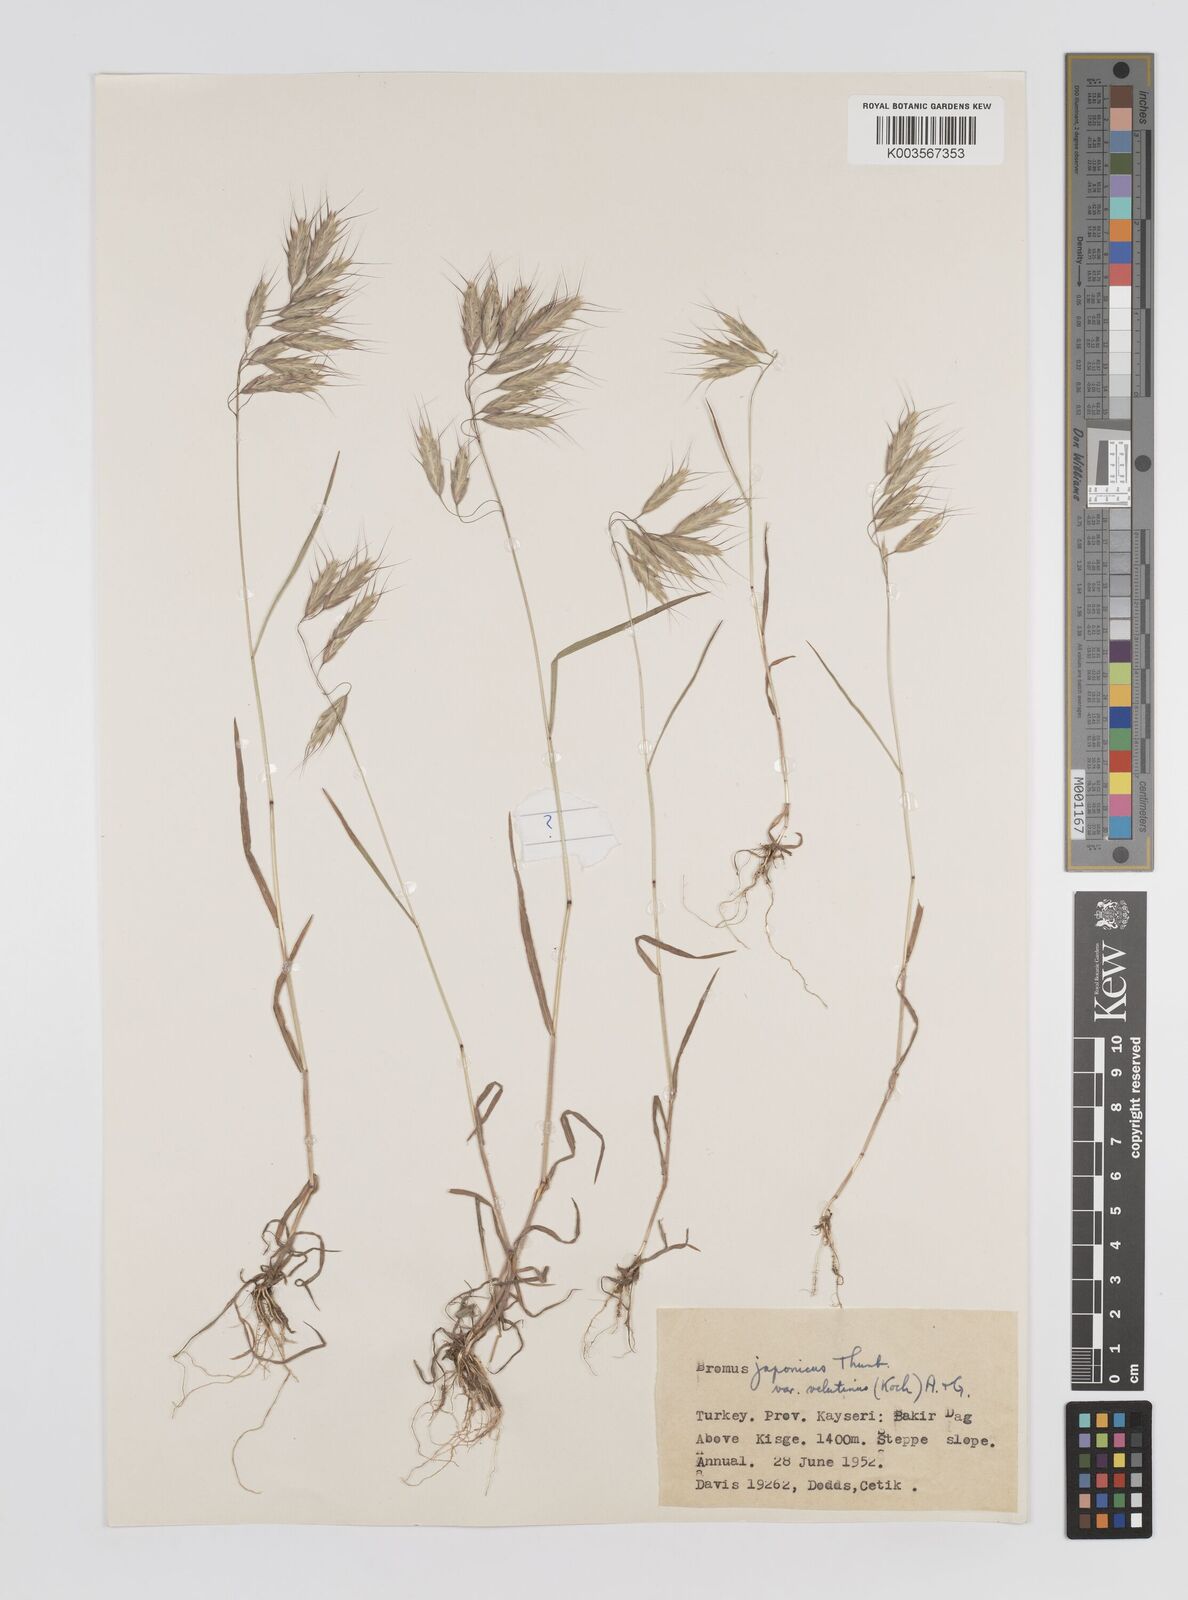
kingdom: Plantae
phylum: Tracheophyta
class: Liliopsida
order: Poales
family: Poaceae
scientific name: Poaceae
